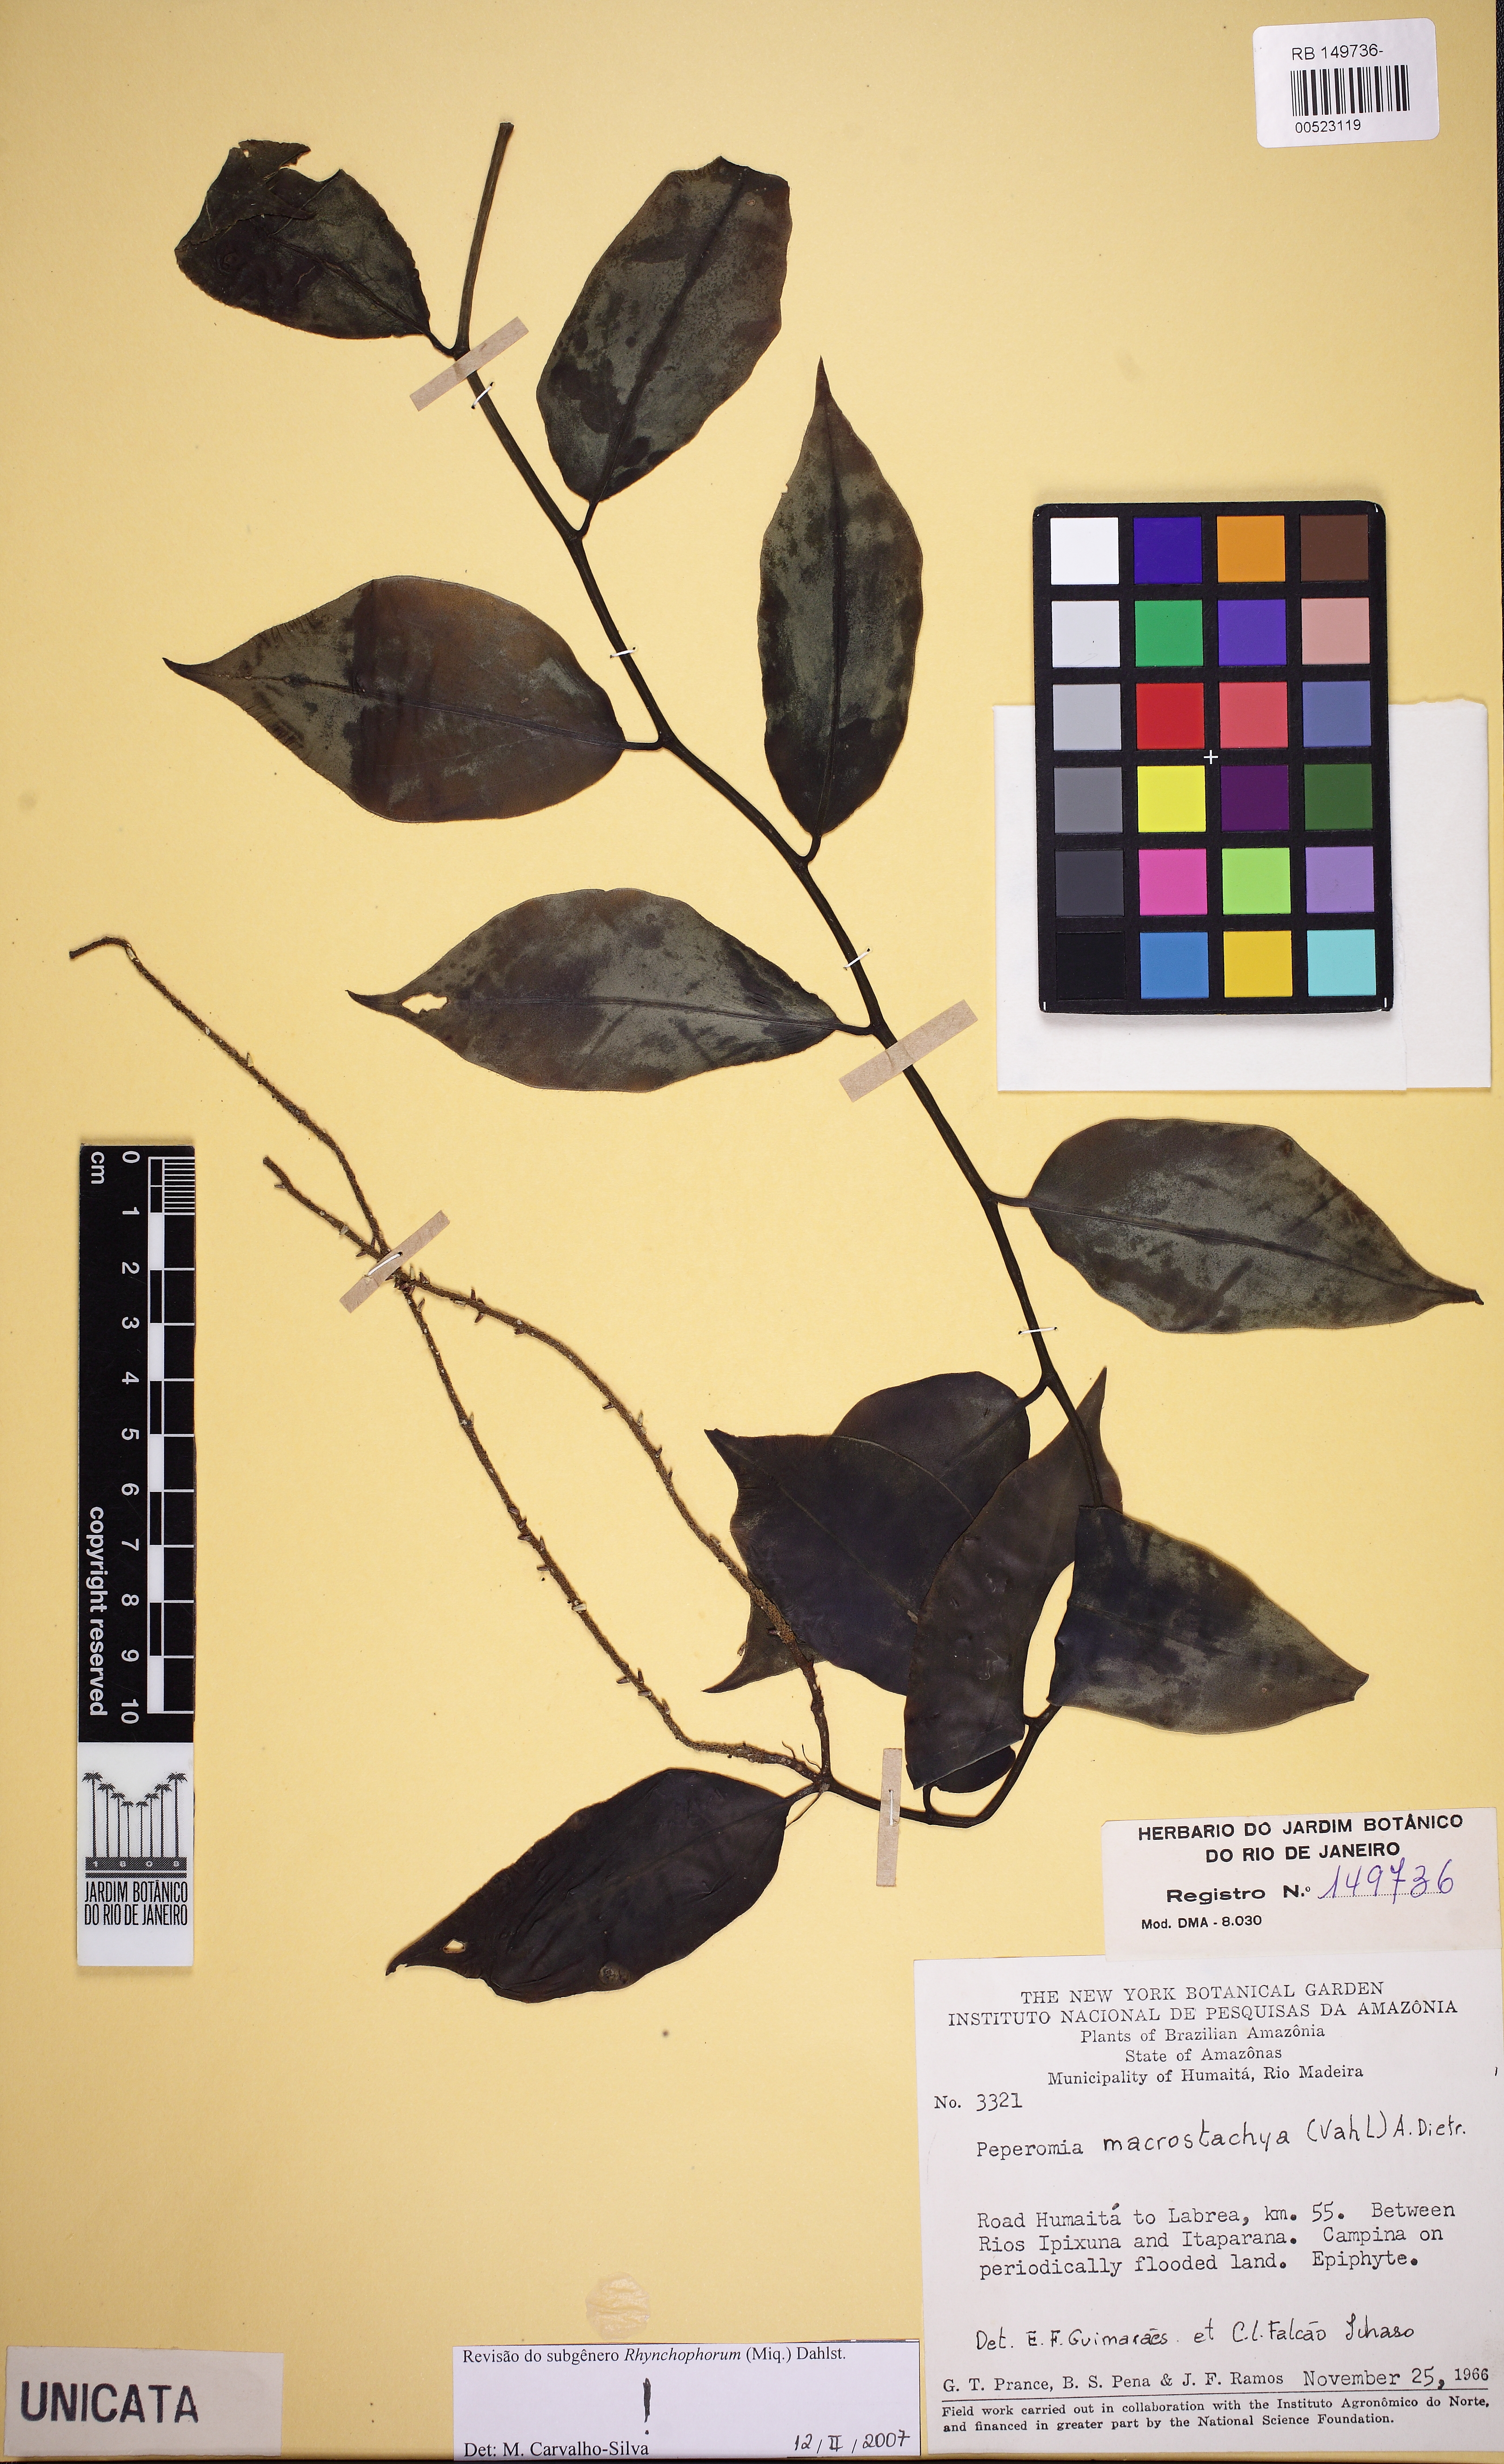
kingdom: Plantae
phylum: Tracheophyta
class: Magnoliopsida
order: Piperales
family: Piperaceae
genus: Peperomia
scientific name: Peperomia macrostachyos
